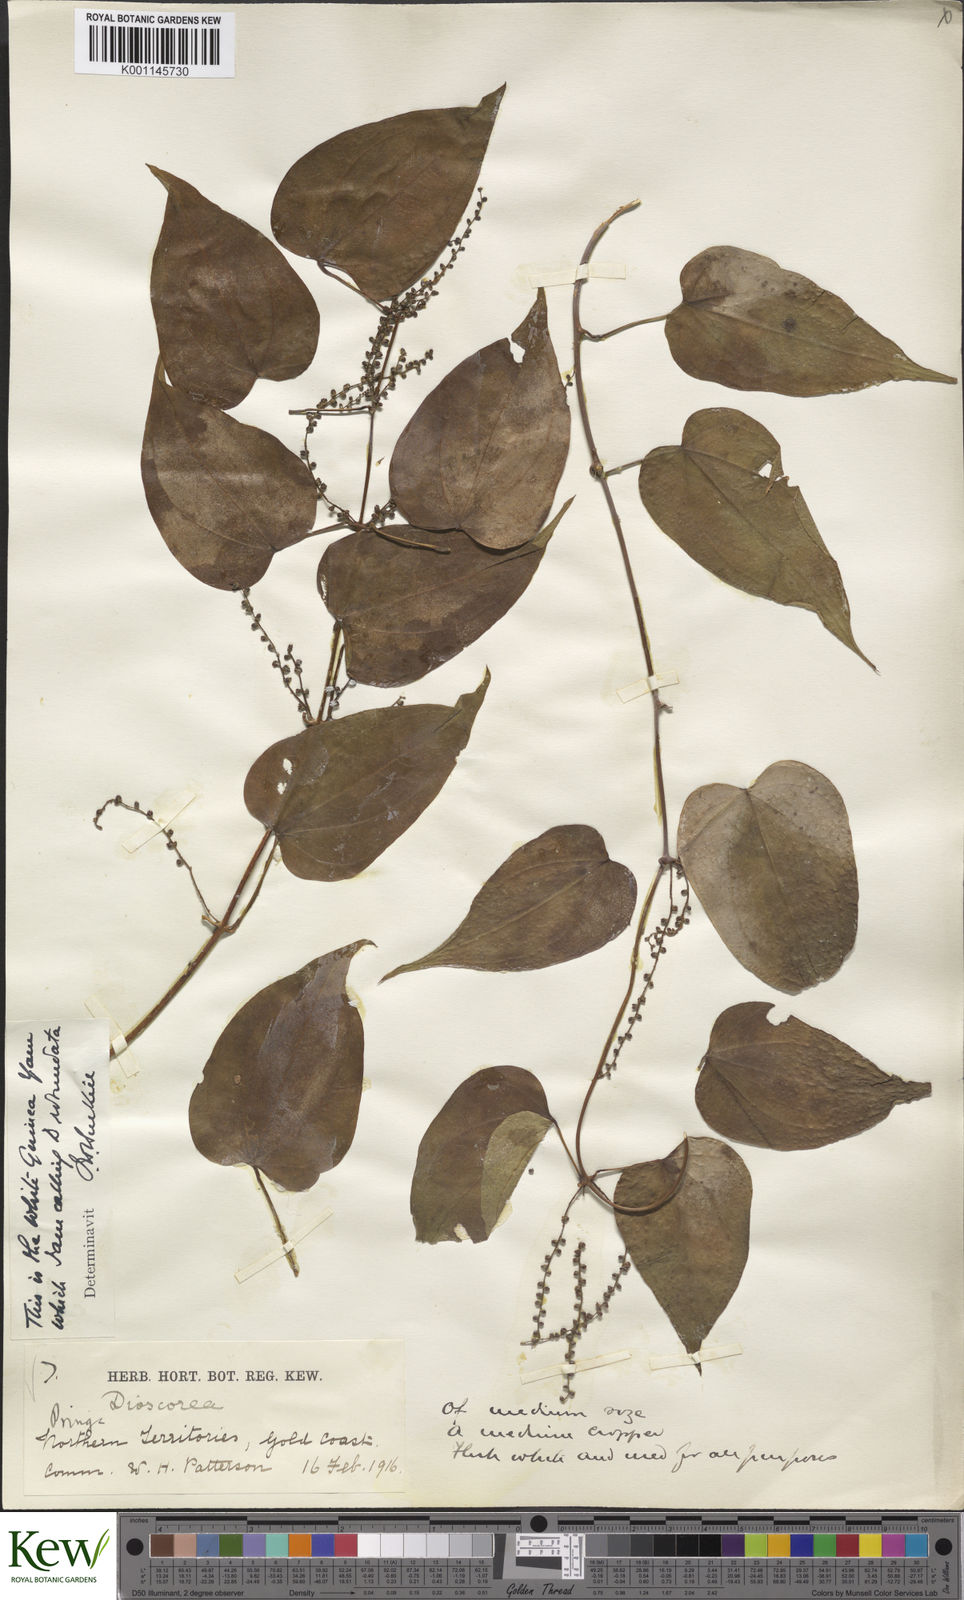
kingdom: Plantae
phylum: Tracheophyta
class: Liliopsida
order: Dioscoreales
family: Dioscoreaceae
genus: Dioscorea
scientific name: Dioscorea cayenensis
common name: Attoto yam
